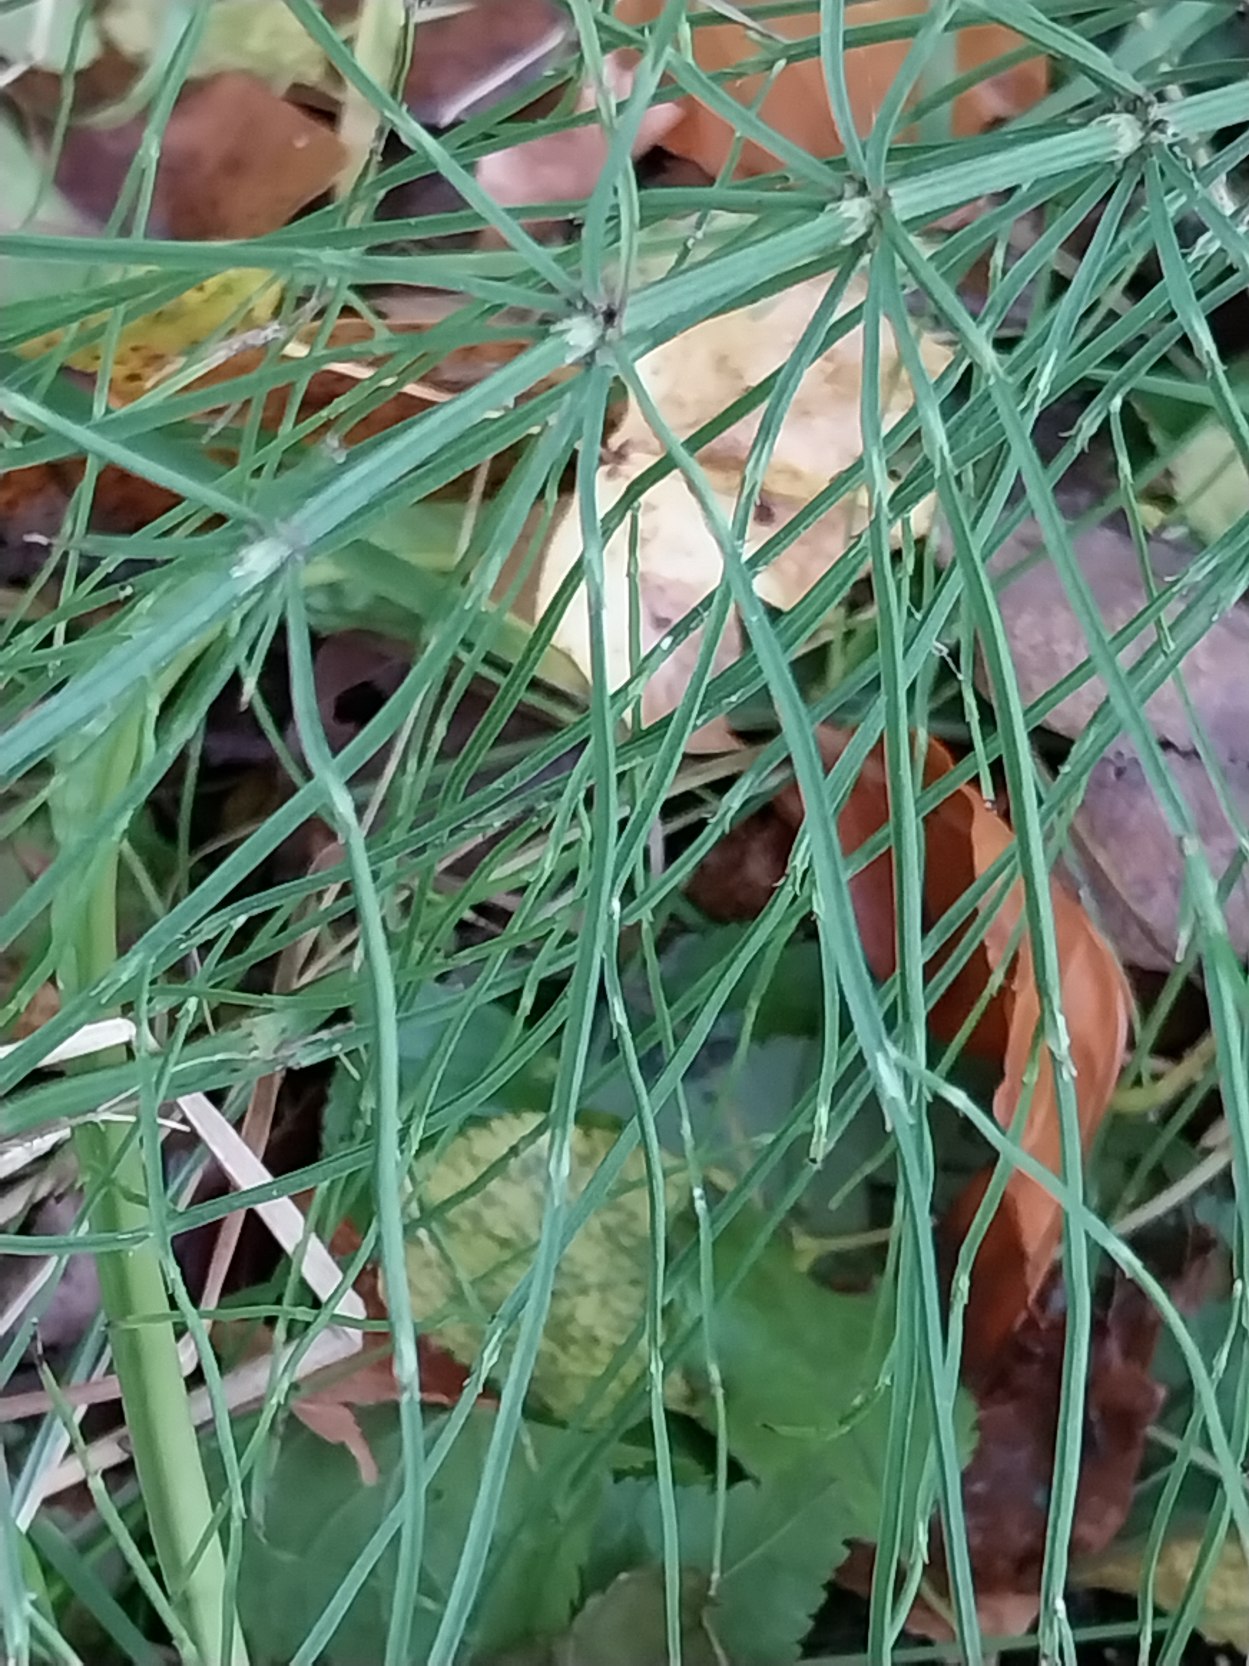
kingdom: Plantae
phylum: Tracheophyta
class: Polypodiopsida
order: Equisetales
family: Equisetaceae
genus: Equisetum
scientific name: Equisetum arvense
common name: Ager-padderok
